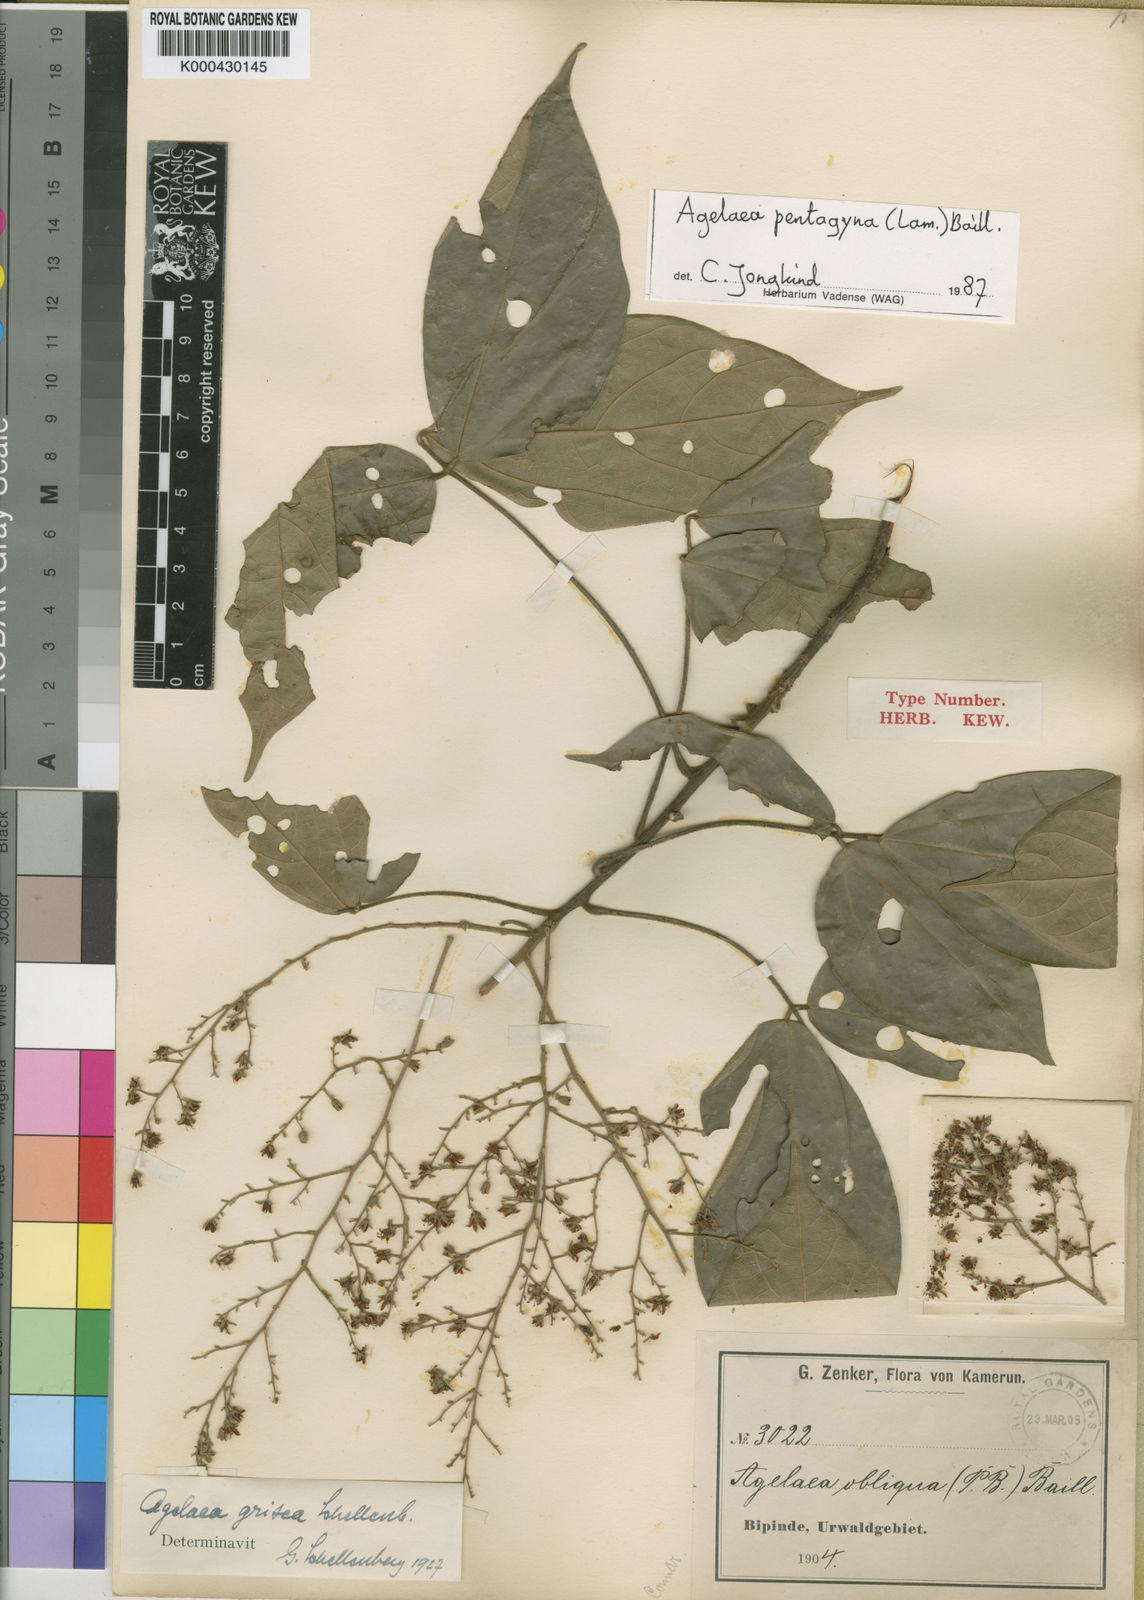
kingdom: Plantae
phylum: Tracheophyta
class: Magnoliopsida
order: Oxalidales
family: Connaraceae
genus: Agelaea
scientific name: Agelaea pentagyna
